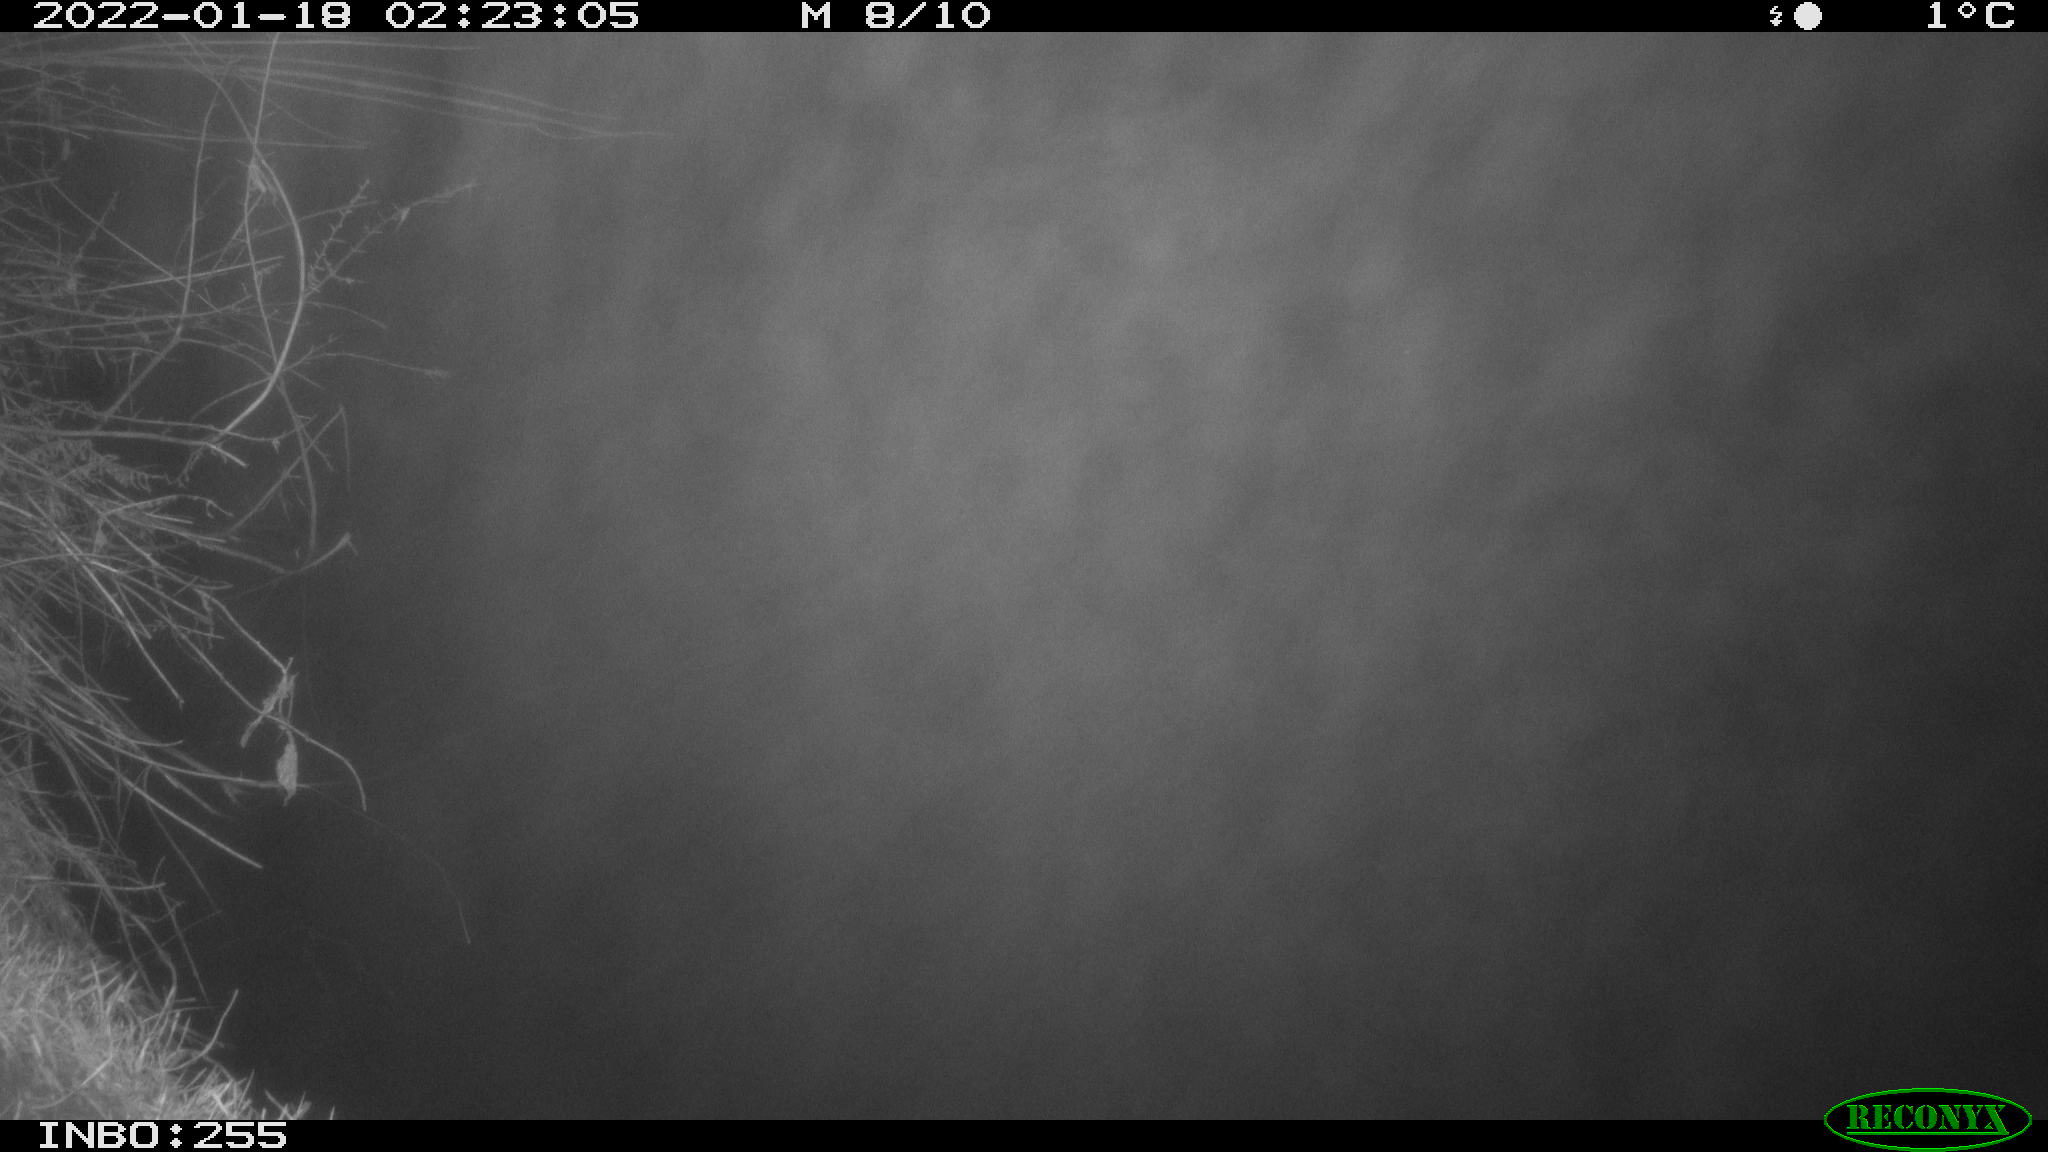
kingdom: Animalia
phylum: Chordata
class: Mammalia
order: Rodentia
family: Muridae
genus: Rattus
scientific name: Rattus norvegicus
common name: Brown rat
